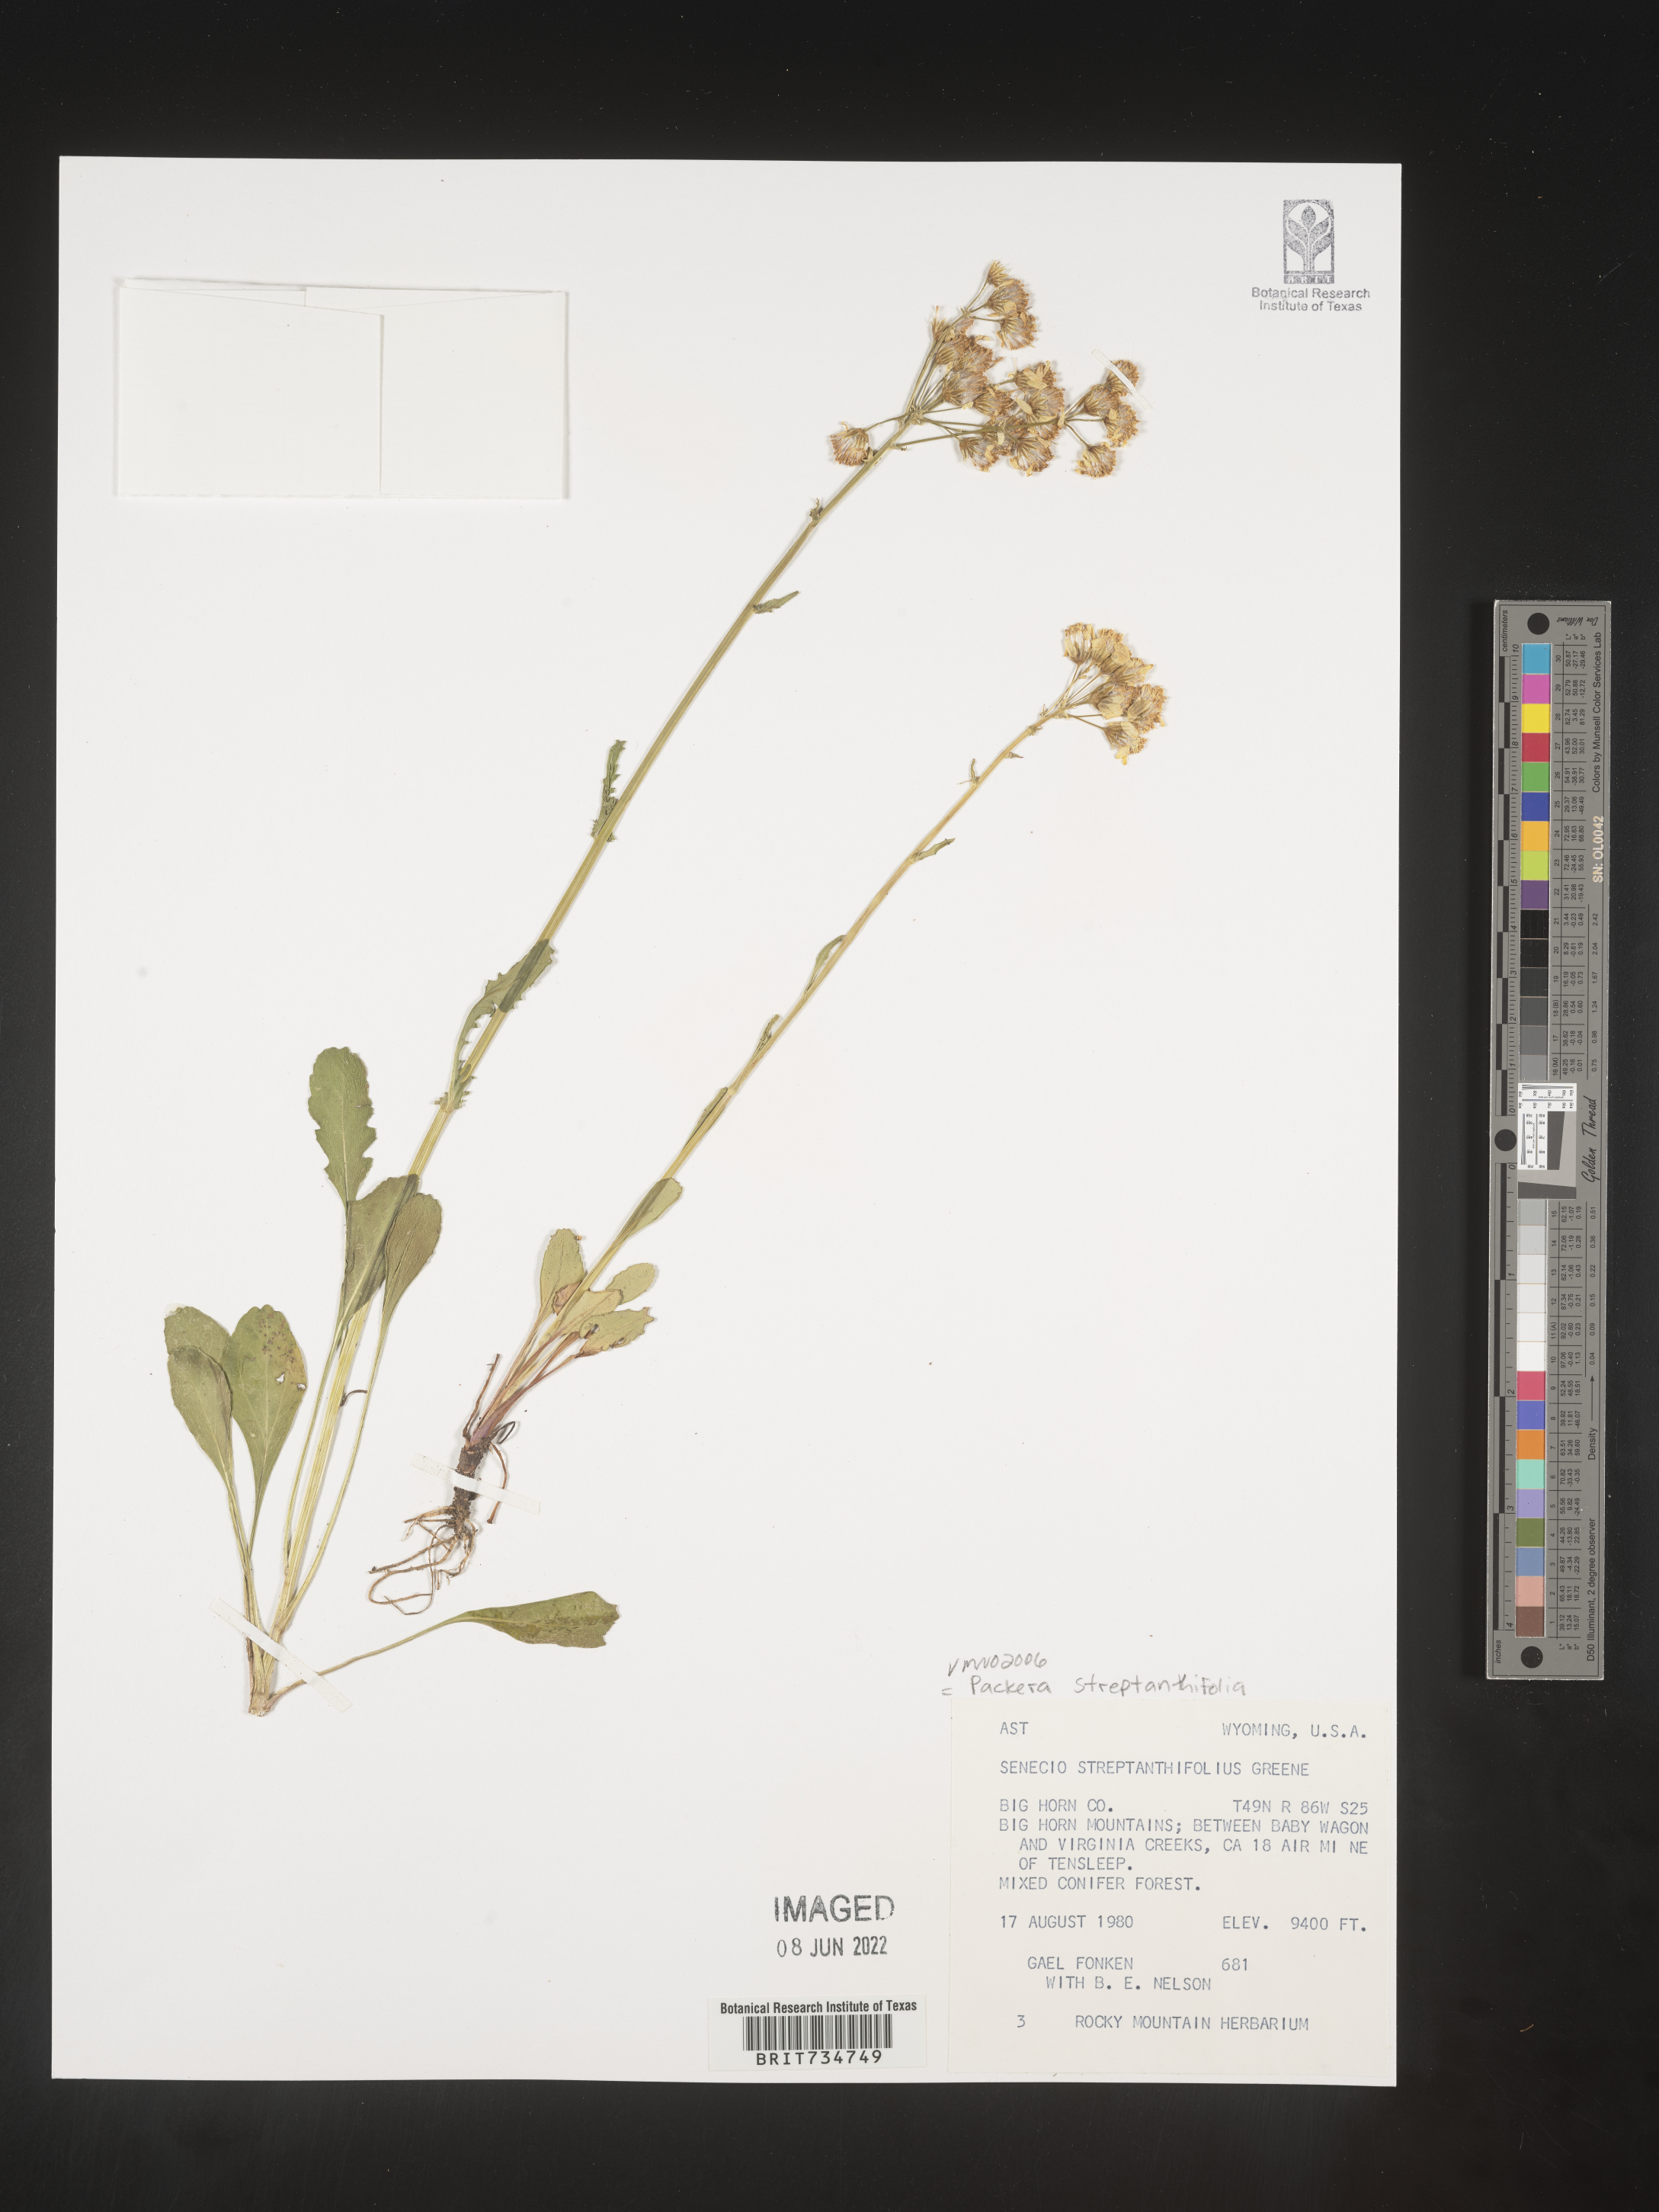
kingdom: Plantae
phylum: Tracheophyta
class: Magnoliopsida
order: Asterales
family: Asteraceae
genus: Packera
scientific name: Packera streptanthifolia
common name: Rocky mountain butterweed
